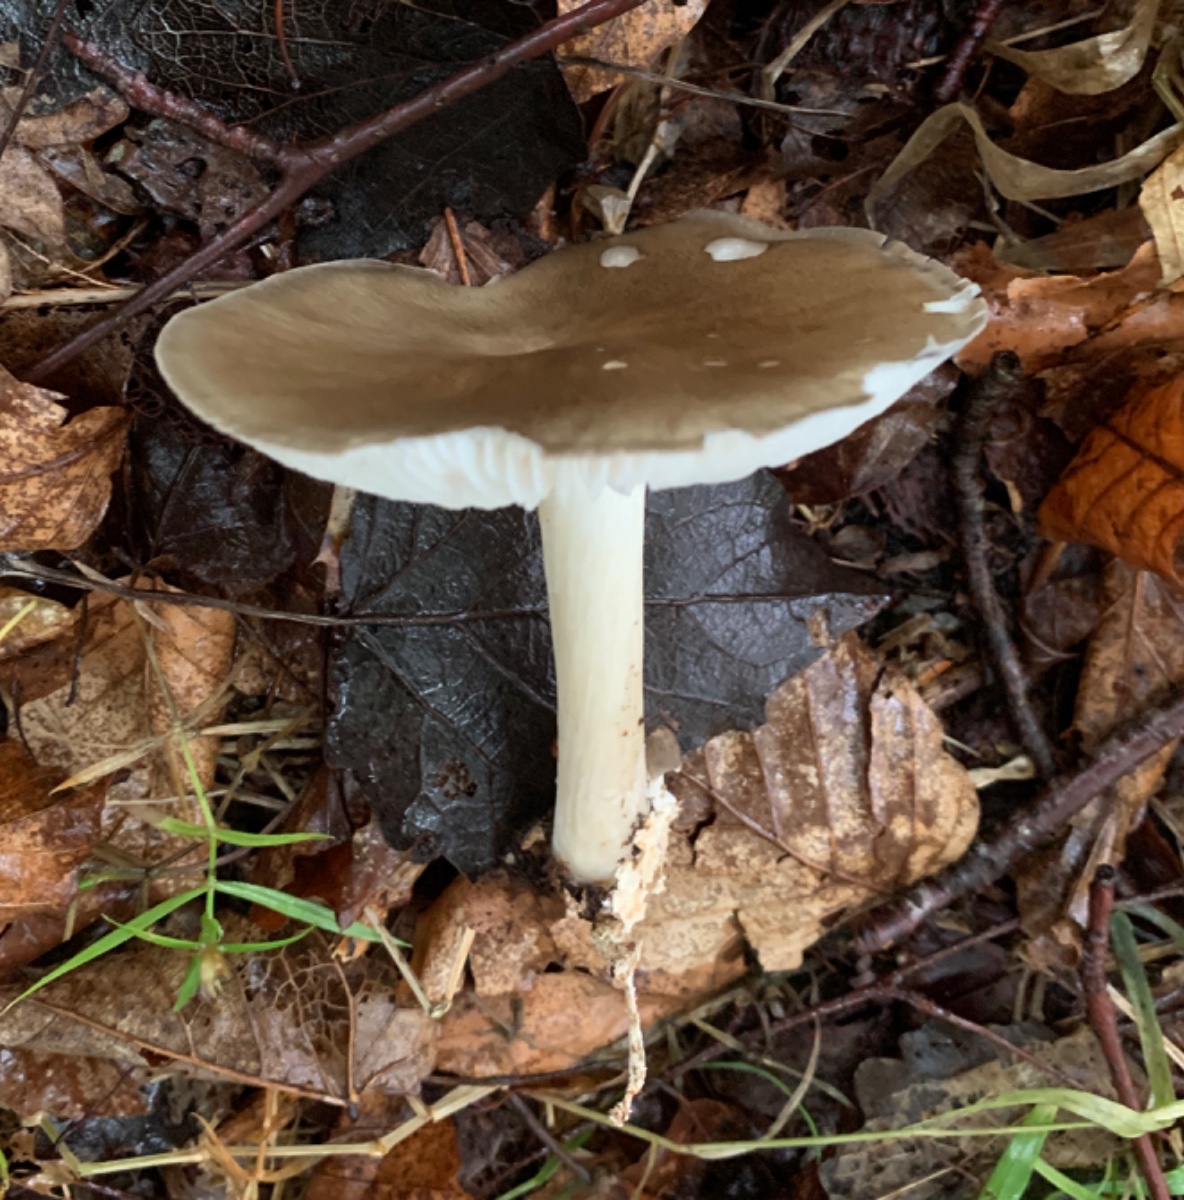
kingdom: Fungi
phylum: Basidiomycota
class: Agaricomycetes
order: Agaricales
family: Tricholomataceae
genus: Megacollybia
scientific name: Megacollybia platyphylla
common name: bredbladet væbnerhat
